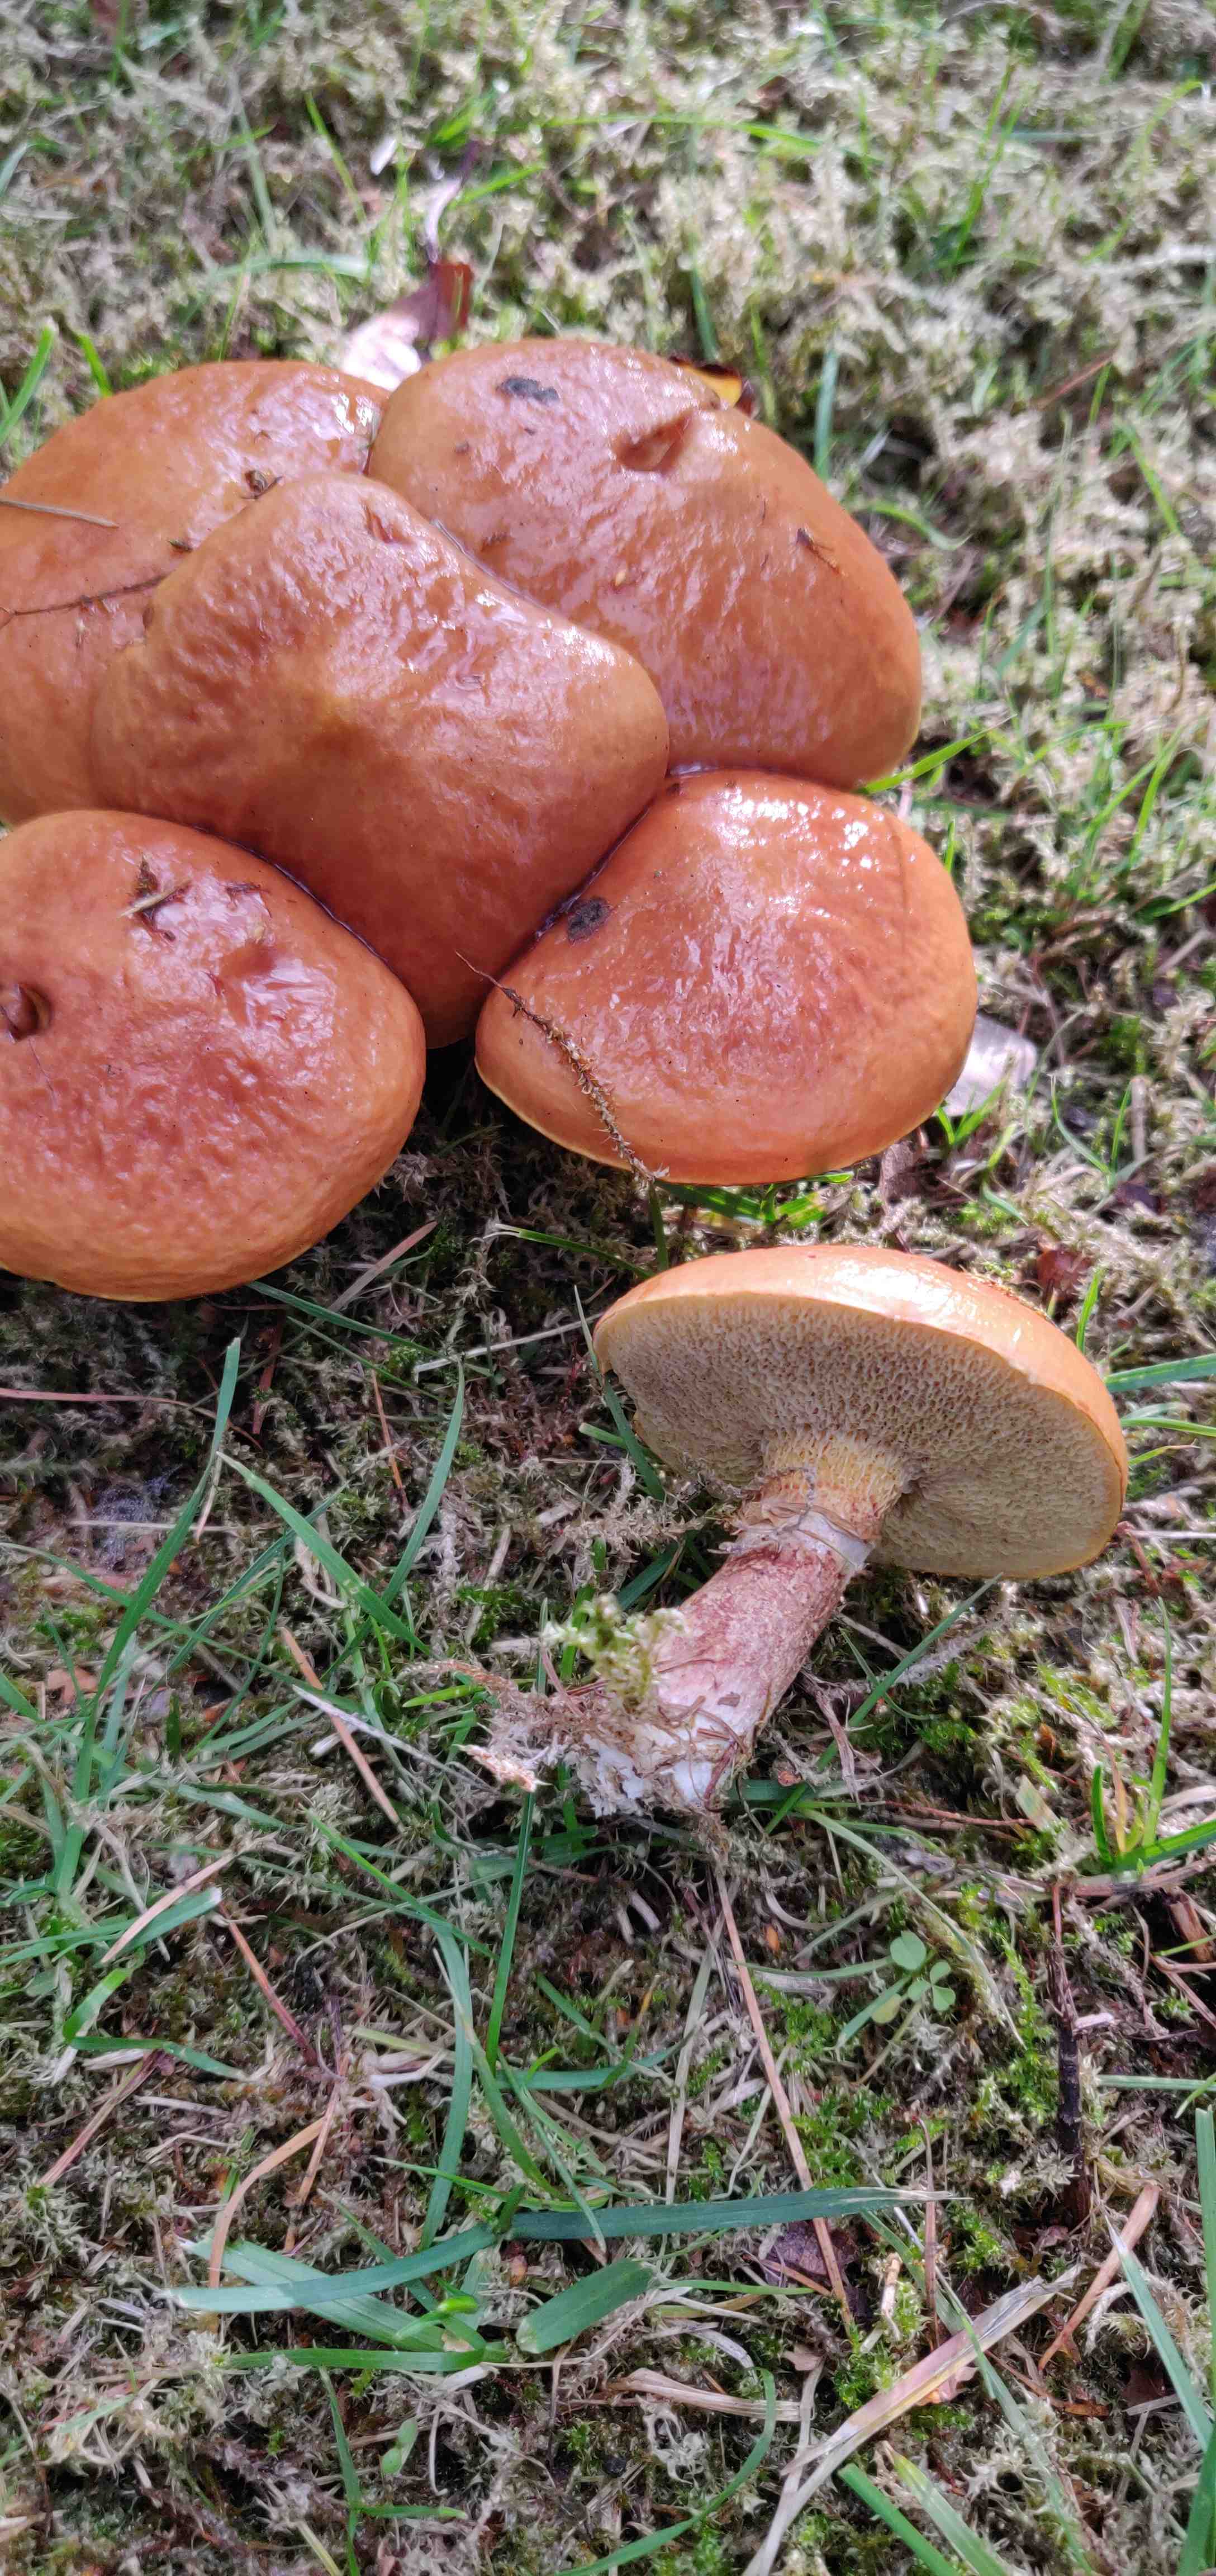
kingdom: Fungi
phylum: Basidiomycota
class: Agaricomycetes
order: Boletales
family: Suillaceae
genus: Suillus
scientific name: Suillus grevillei
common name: lærke-slimrørhat
